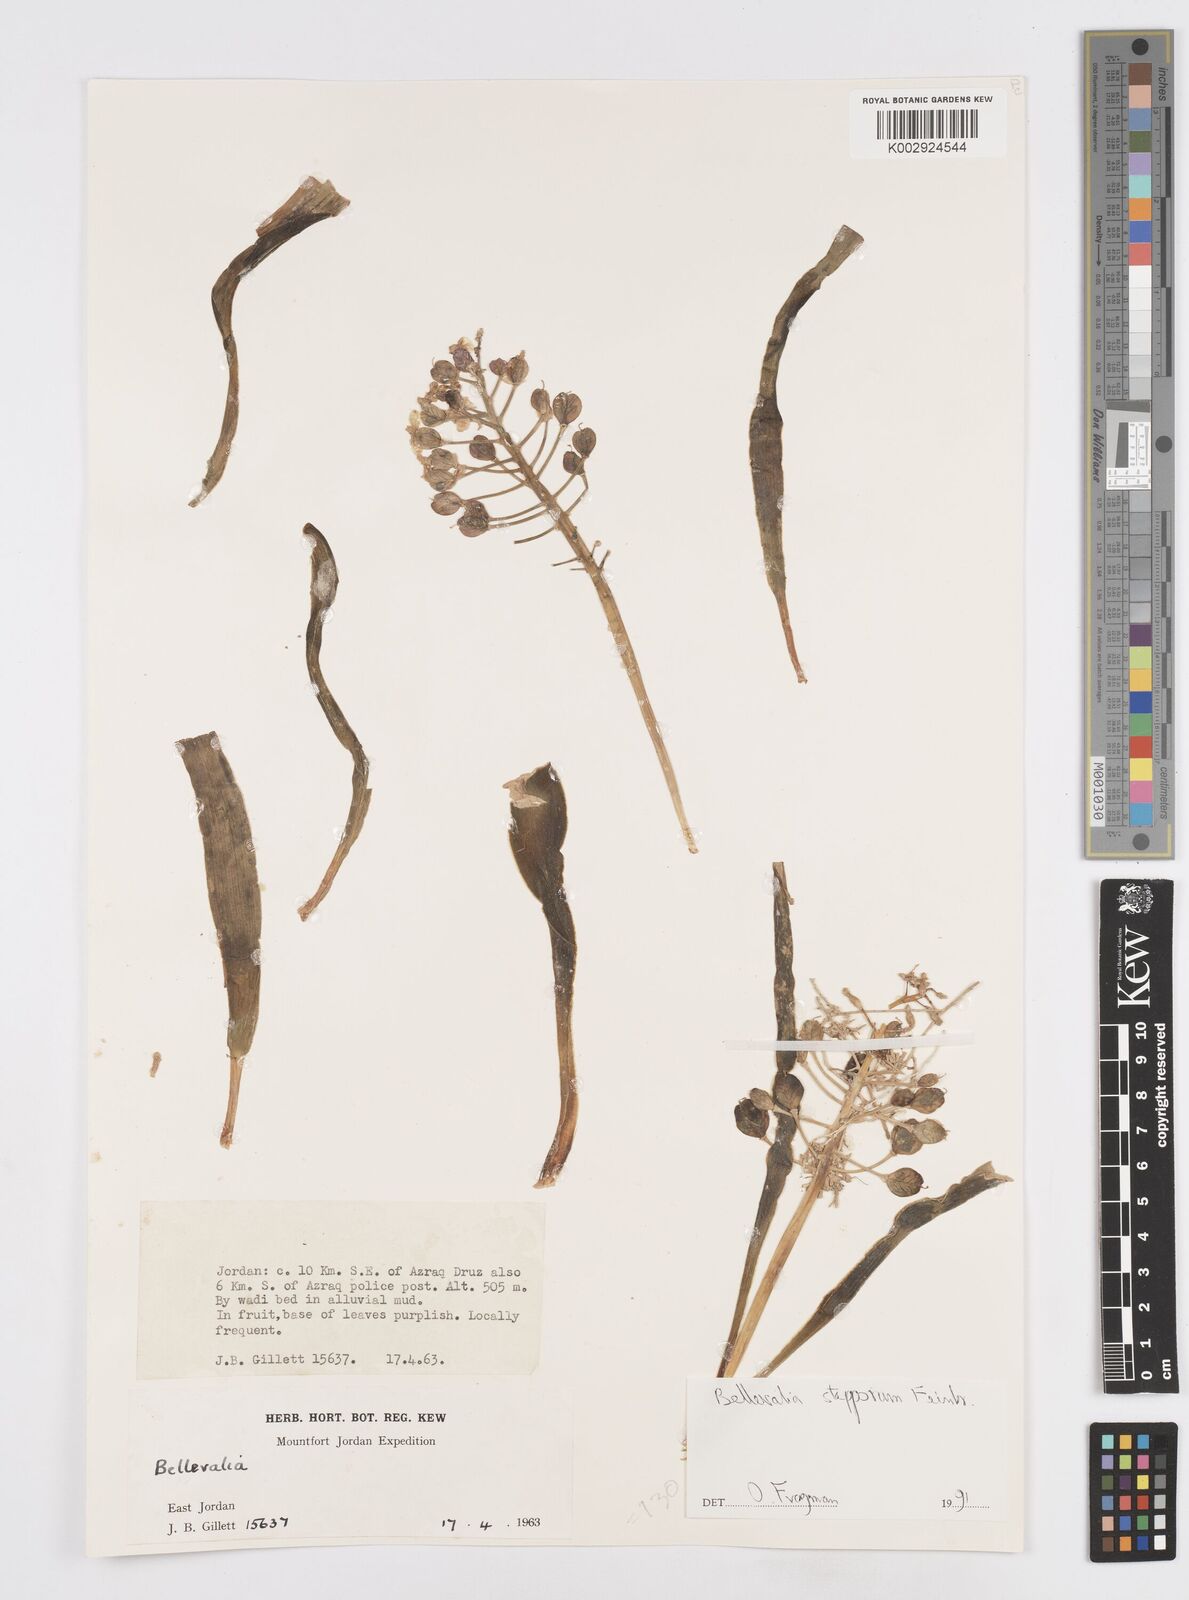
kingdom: Plantae
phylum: Tracheophyta
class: Liliopsida
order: Asparagales
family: Asparagaceae
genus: Bellevalia
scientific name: Bellevalia stepporum
